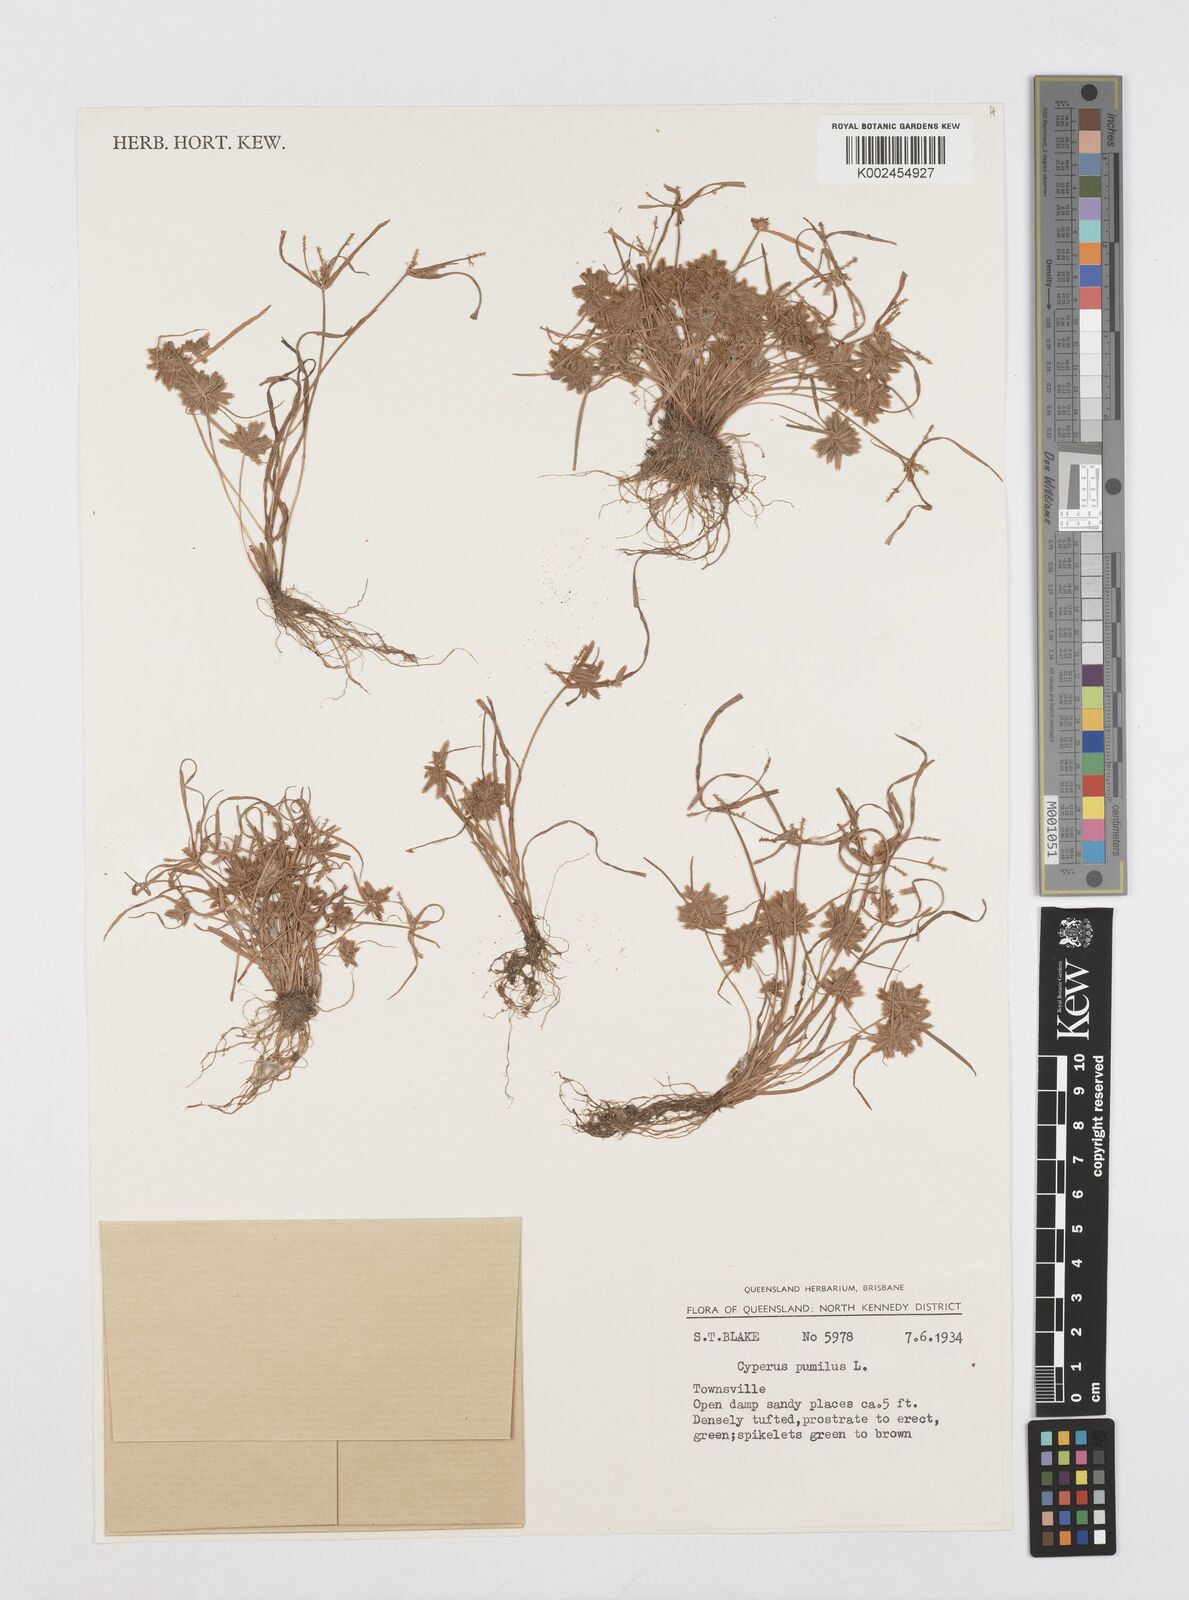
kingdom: Plantae
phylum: Tracheophyta
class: Liliopsida
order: Poales
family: Cyperaceae
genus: Cyperus
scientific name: Cyperus pumilus
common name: Low flatsedge
